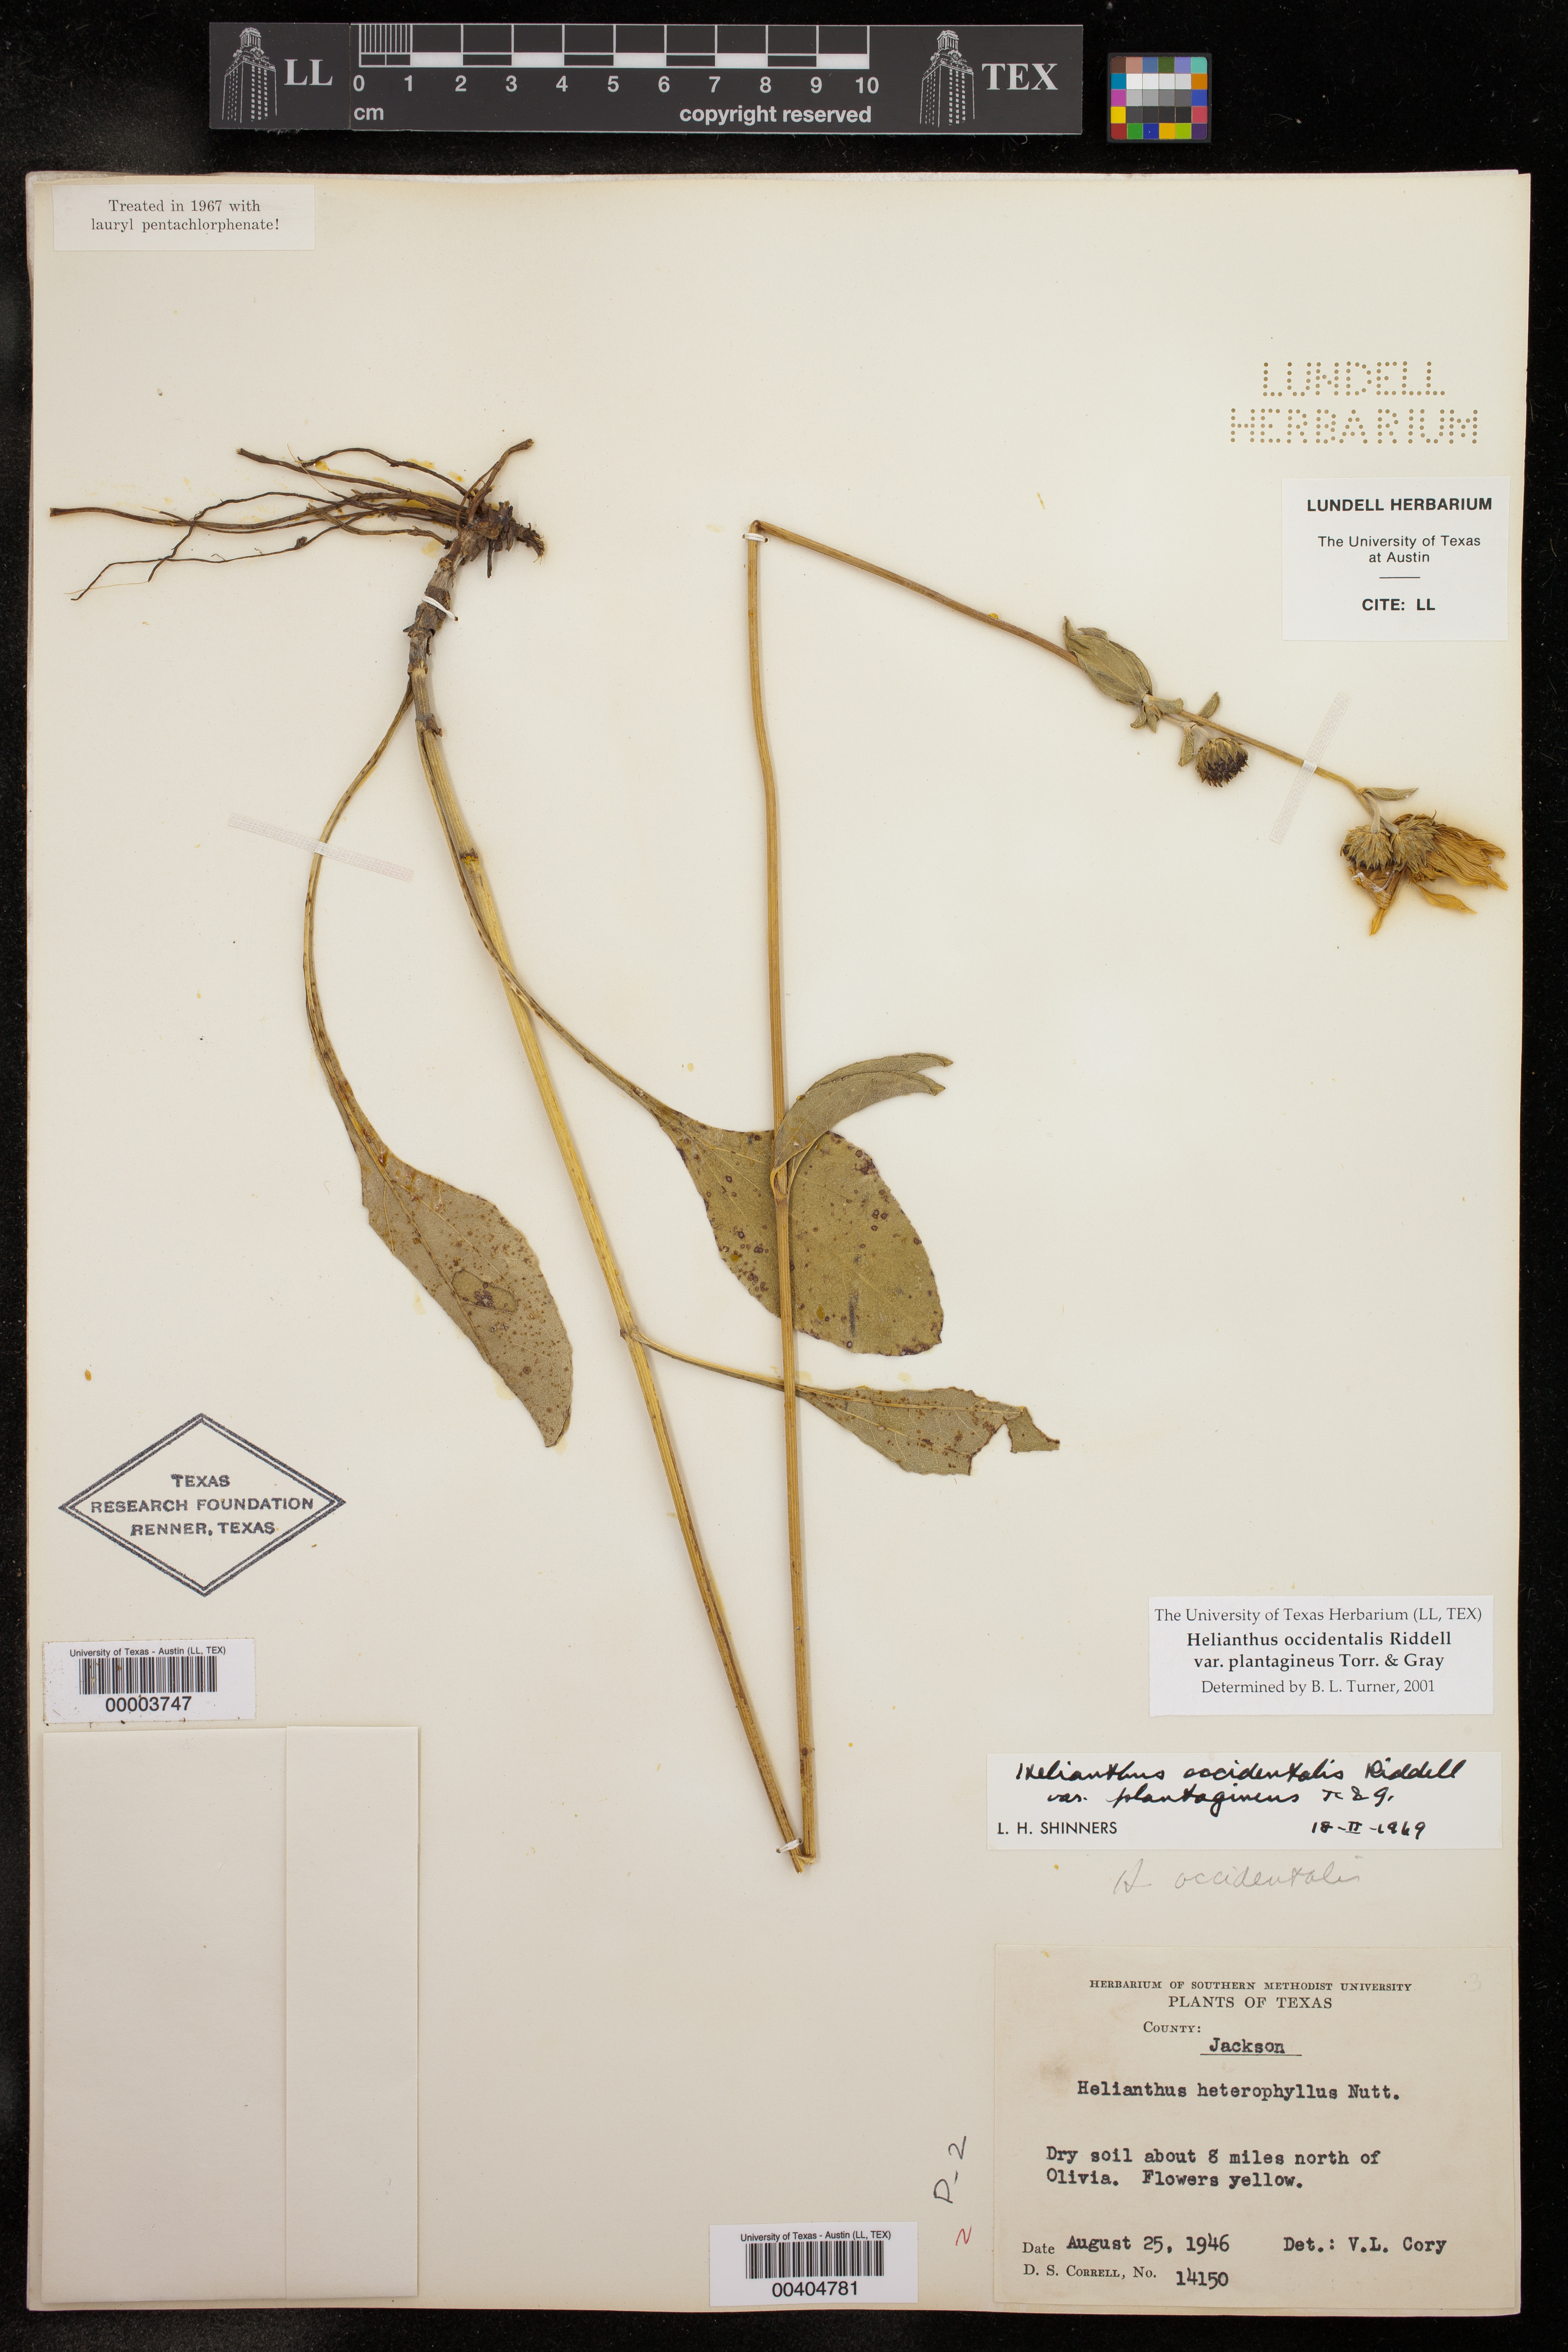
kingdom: Plantae
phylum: Tracheophyta
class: Magnoliopsida
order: Asterales
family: Asteraceae
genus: Helianthus
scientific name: Helianthus occidentalis
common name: Western sunflower
